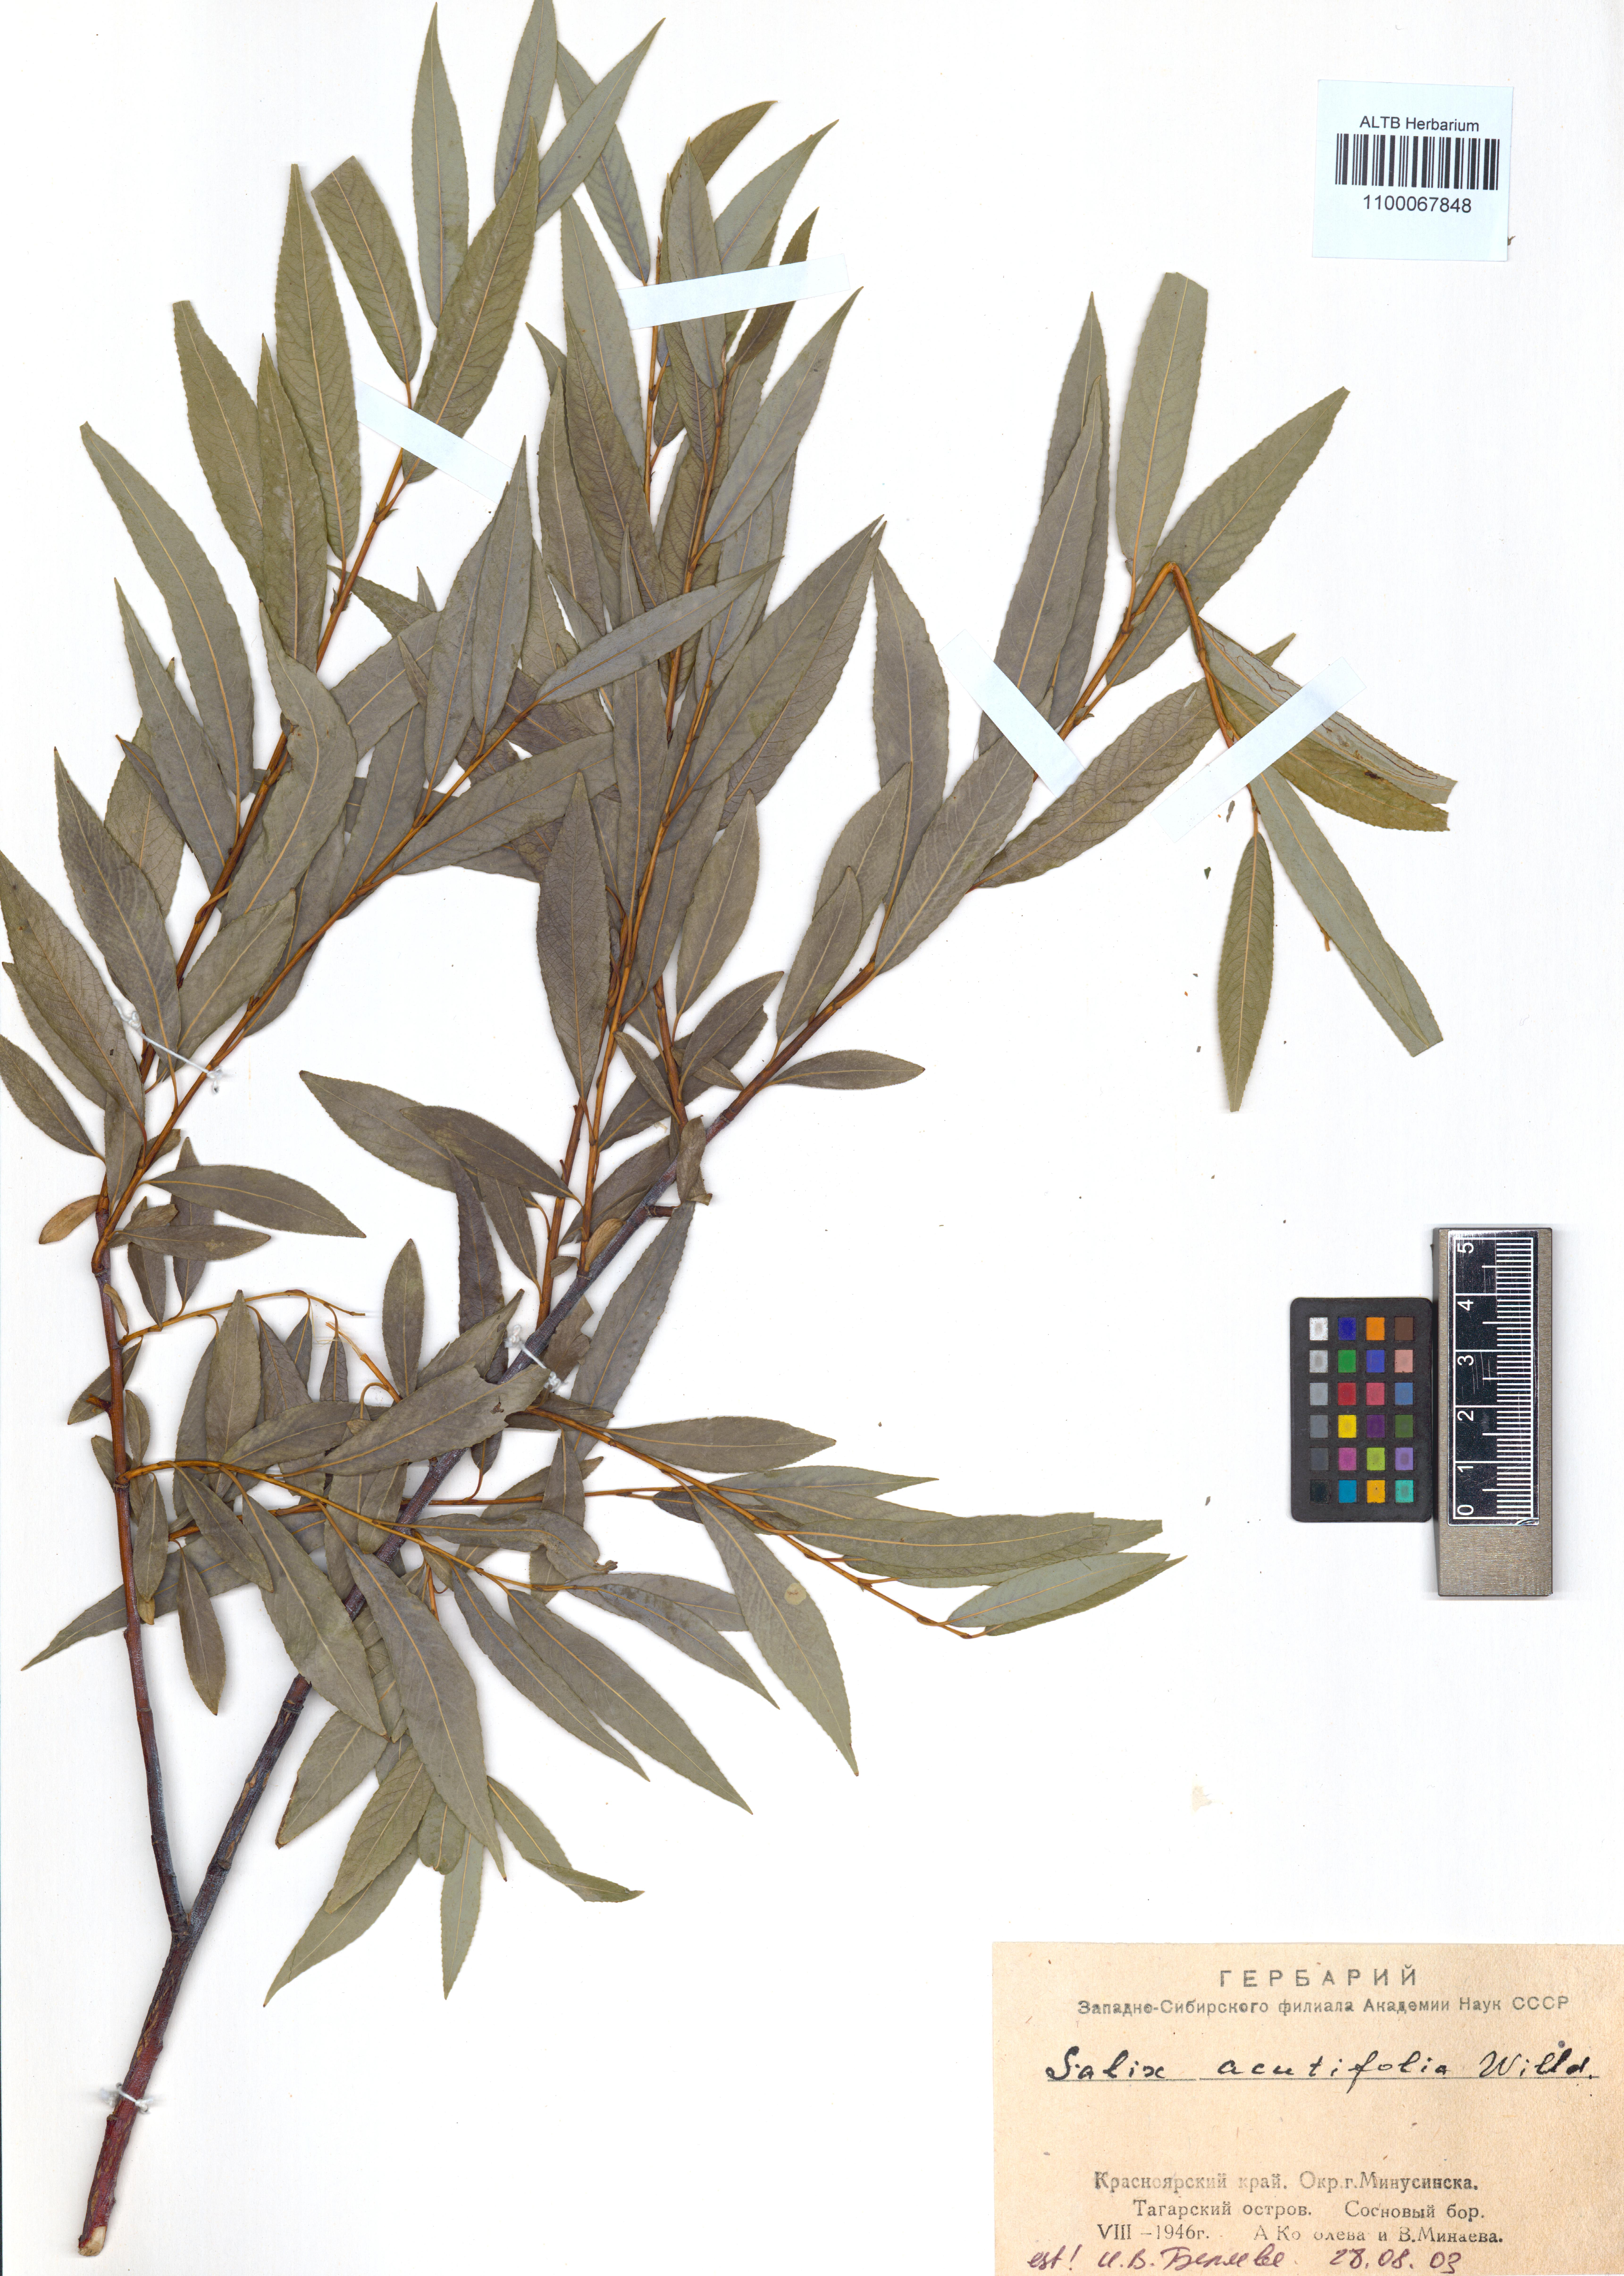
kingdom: Plantae
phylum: Tracheophyta
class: Magnoliopsida
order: Malpighiales
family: Salicaceae
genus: Salix
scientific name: Salix acutifolia
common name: Siberian violet-willow
